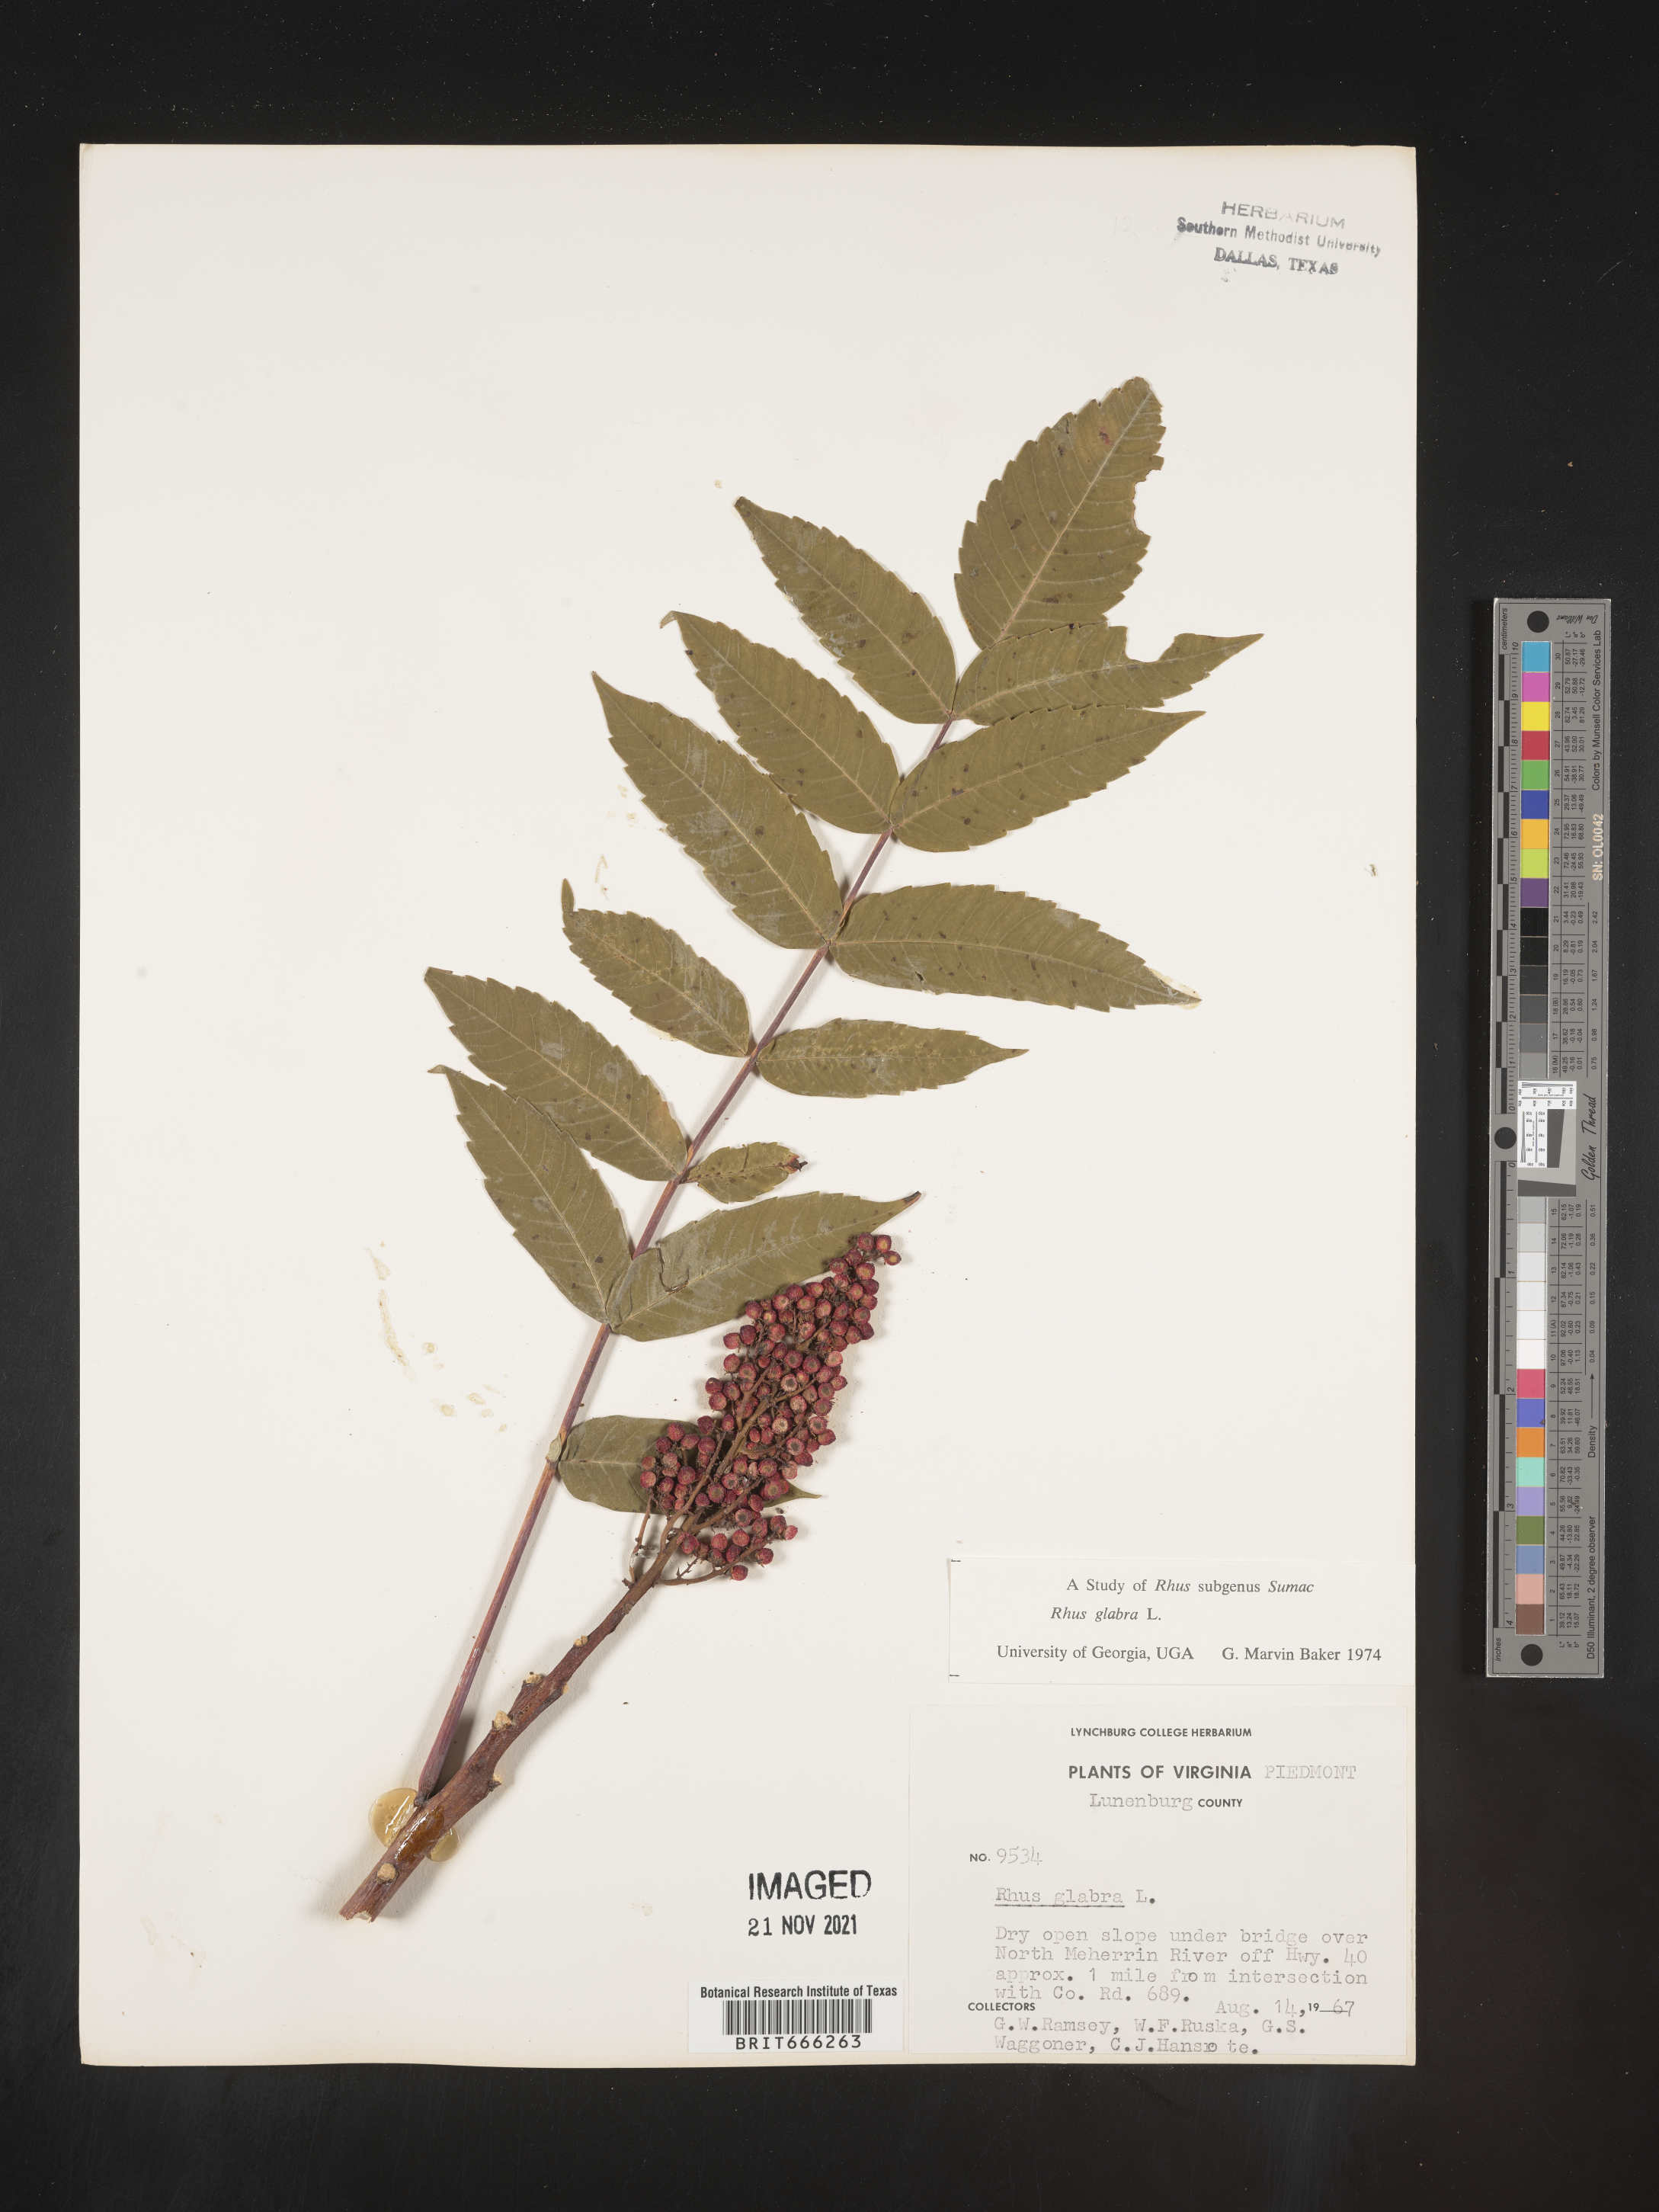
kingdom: Plantae
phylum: Tracheophyta
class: Magnoliopsida
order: Sapindales
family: Anacardiaceae
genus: Rhus
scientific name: Rhus glabra
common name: Scarlet sumac
